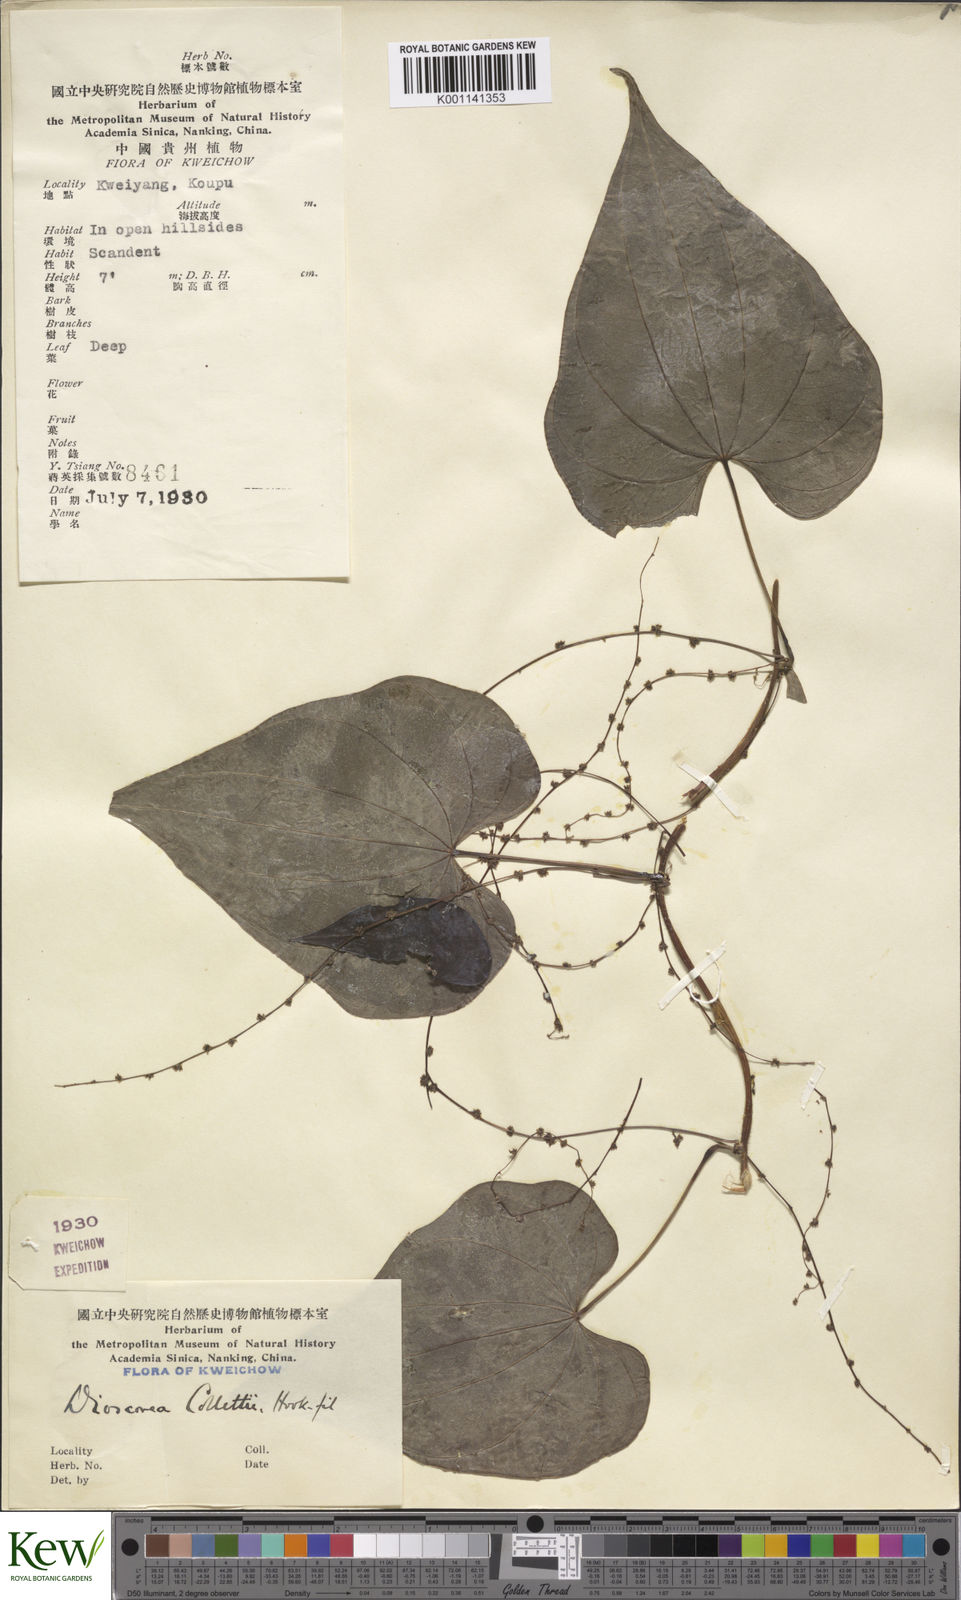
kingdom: Plantae
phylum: Tracheophyta
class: Liliopsida
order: Dioscoreales
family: Dioscoreaceae
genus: Dioscorea
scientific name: Dioscorea collettii
